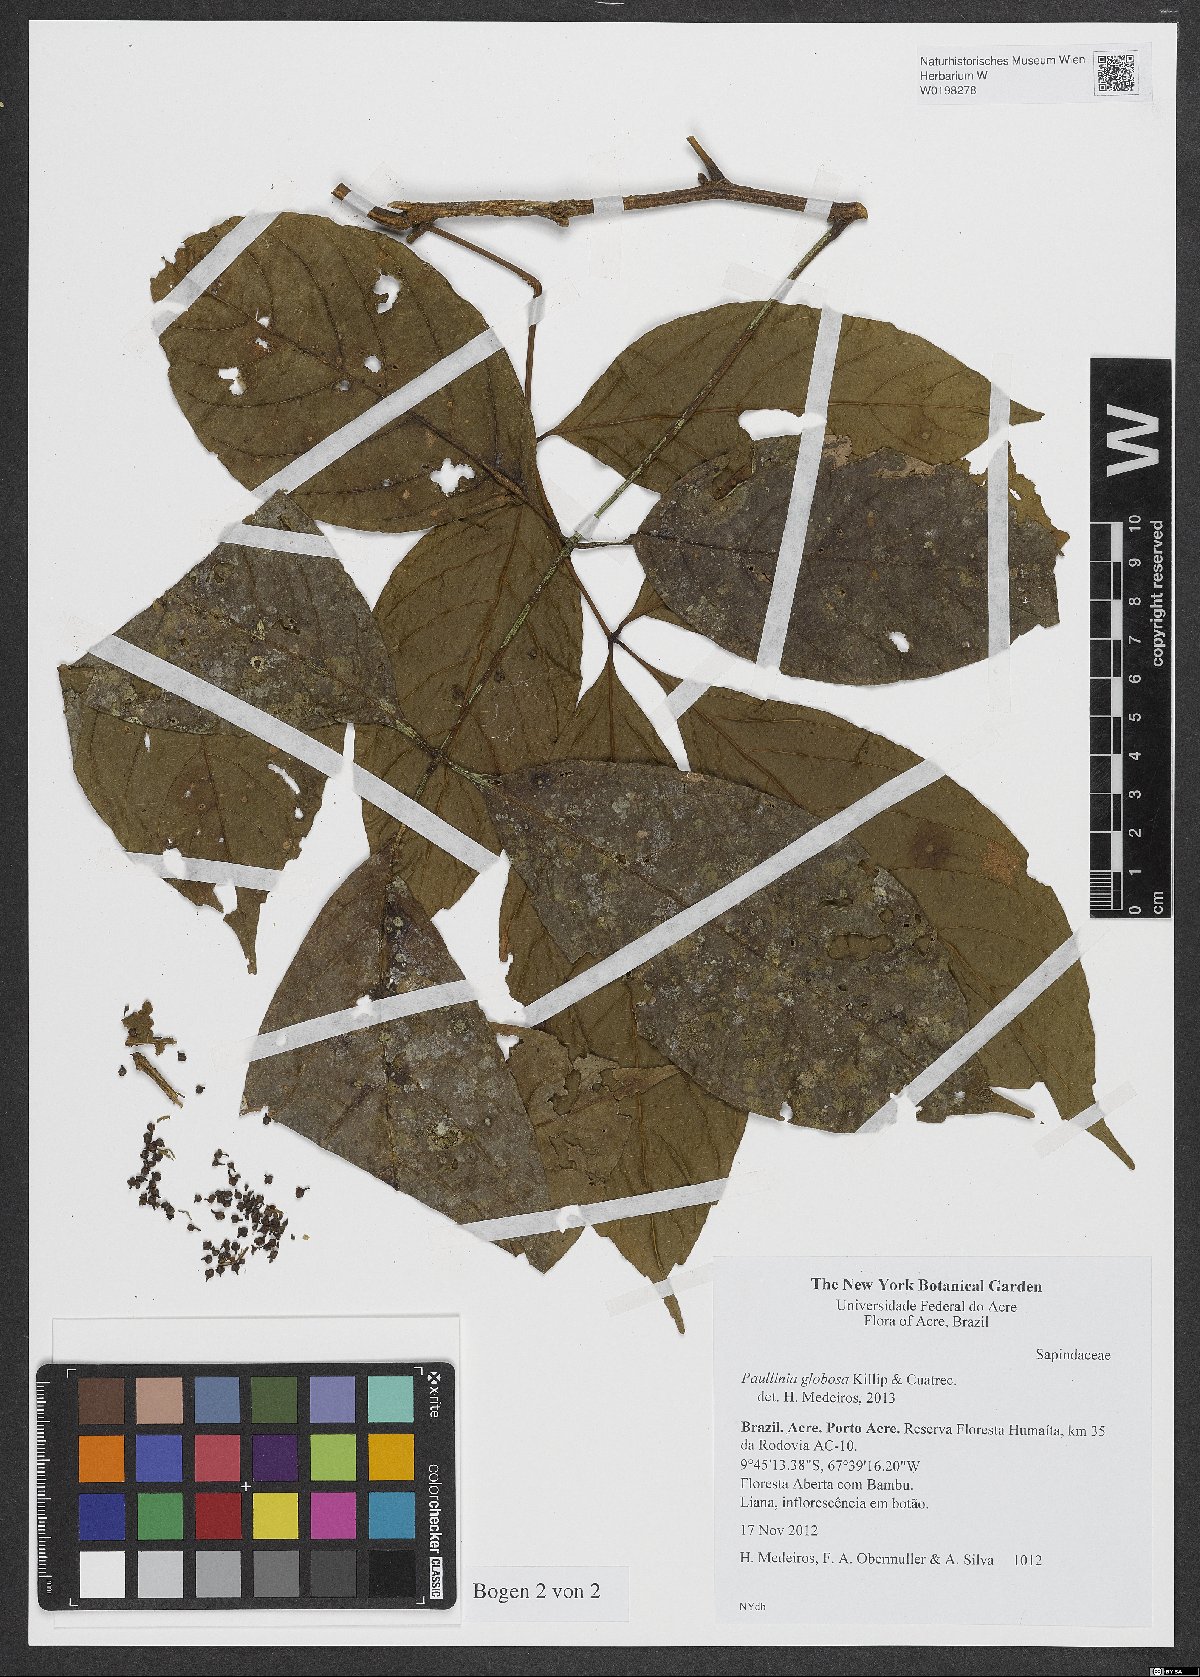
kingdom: Plantae
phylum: Tracheophyta
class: Magnoliopsida
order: Sapindales
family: Sapindaceae
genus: Paullinia
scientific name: Paullinia globosa
